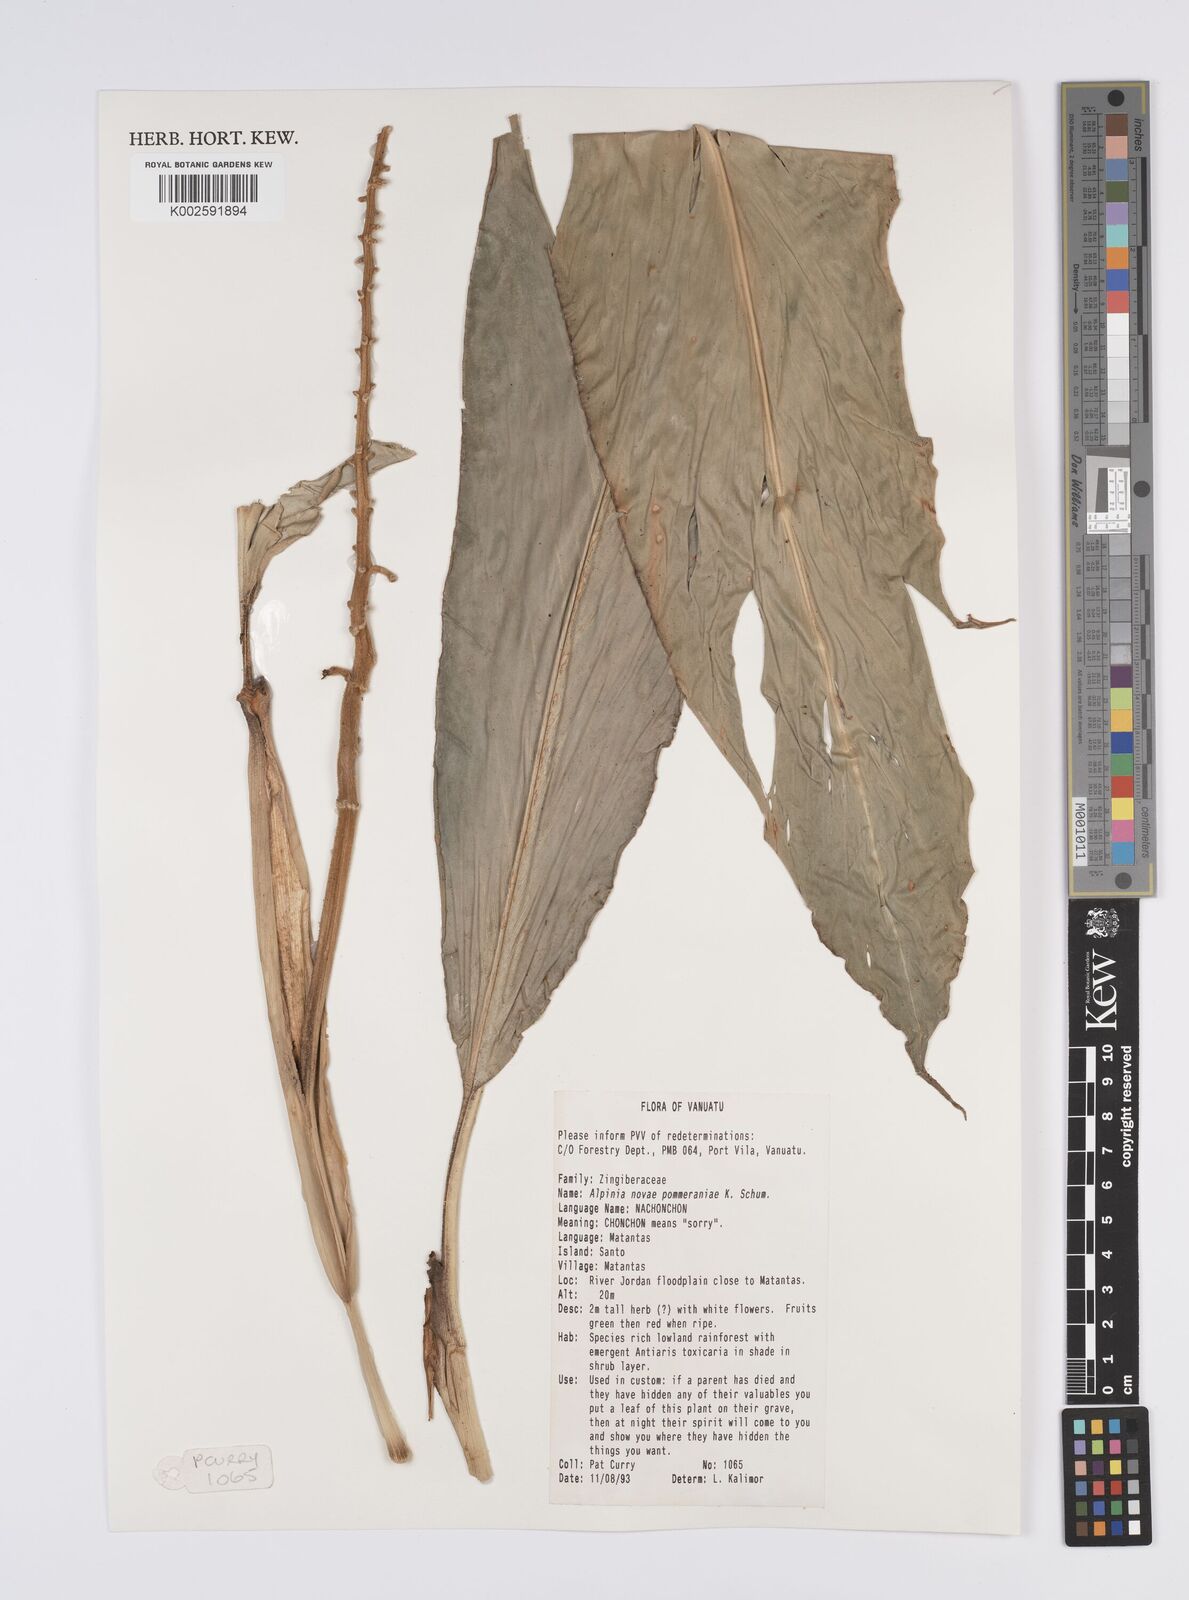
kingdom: Plantae
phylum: Tracheophyta
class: Liliopsida
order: Zingiberales
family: Zingiberaceae
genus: Alpinia
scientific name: Alpinia novae-pommeraniae
